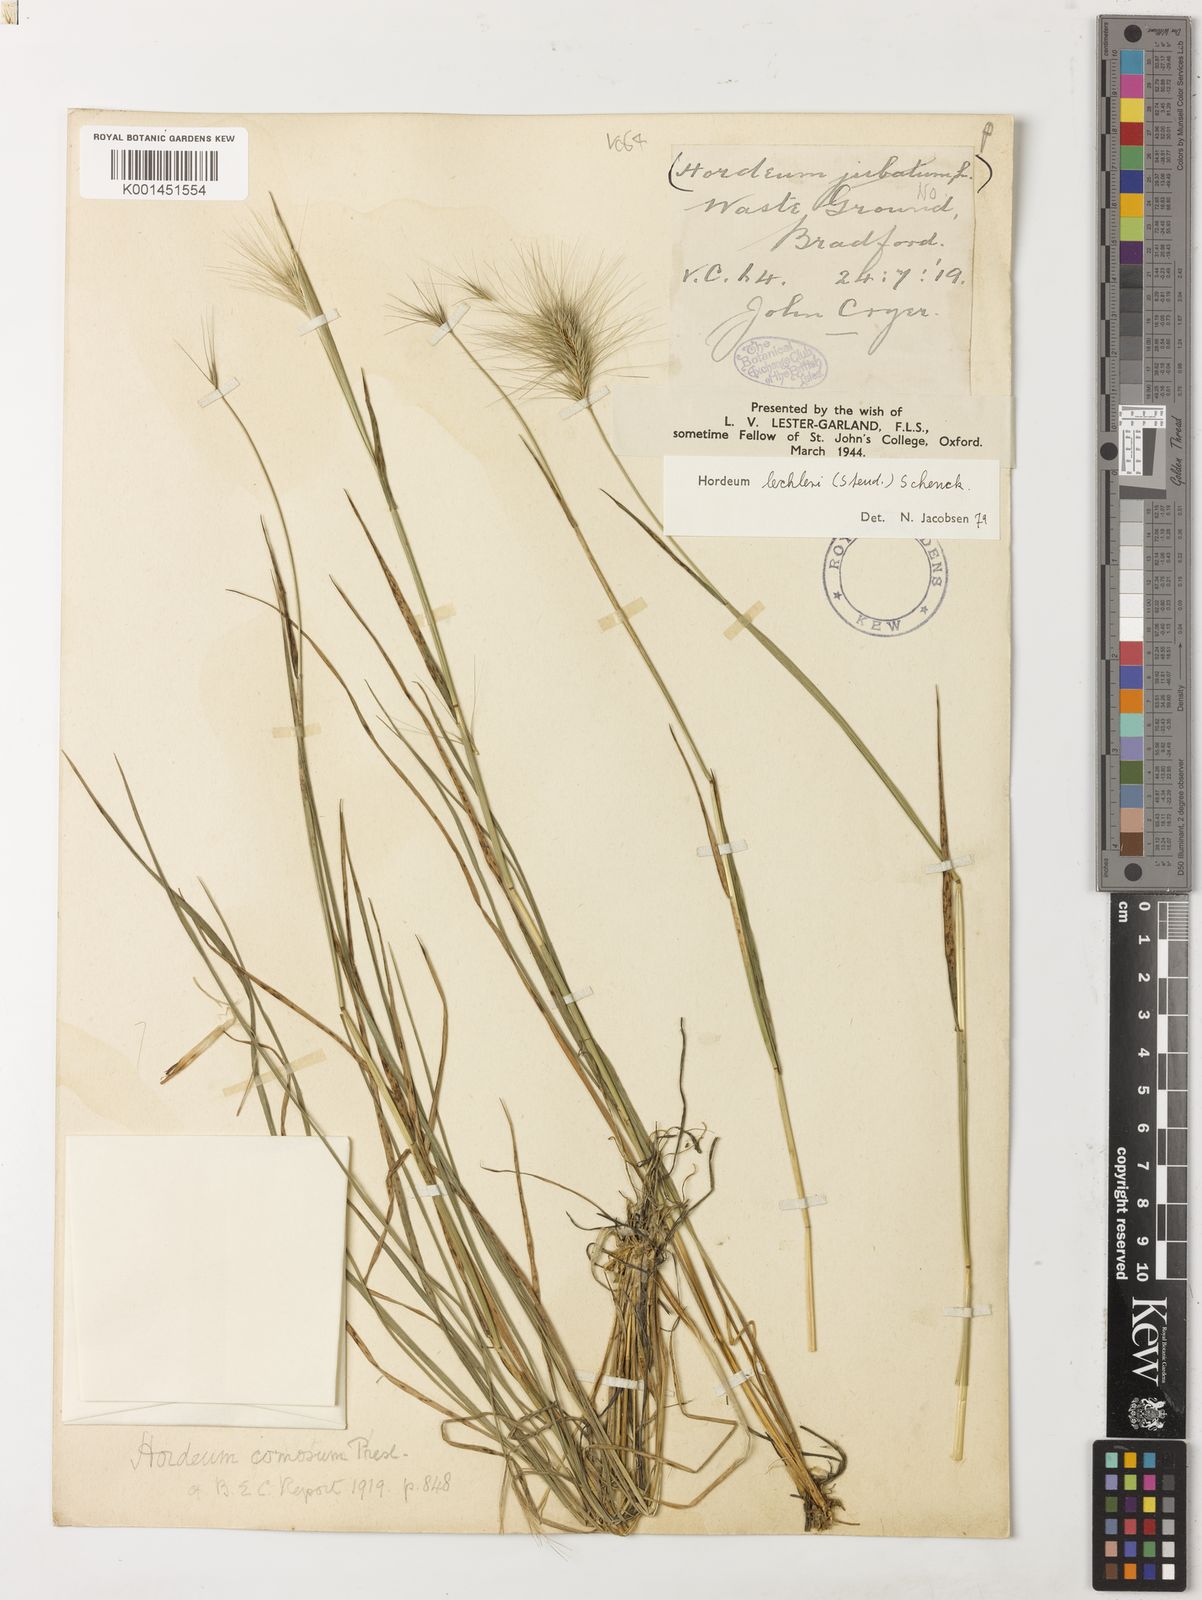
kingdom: Plantae
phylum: Tracheophyta
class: Liliopsida
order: Poales
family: Poaceae
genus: Hordeum
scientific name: Hordeum lechleri
